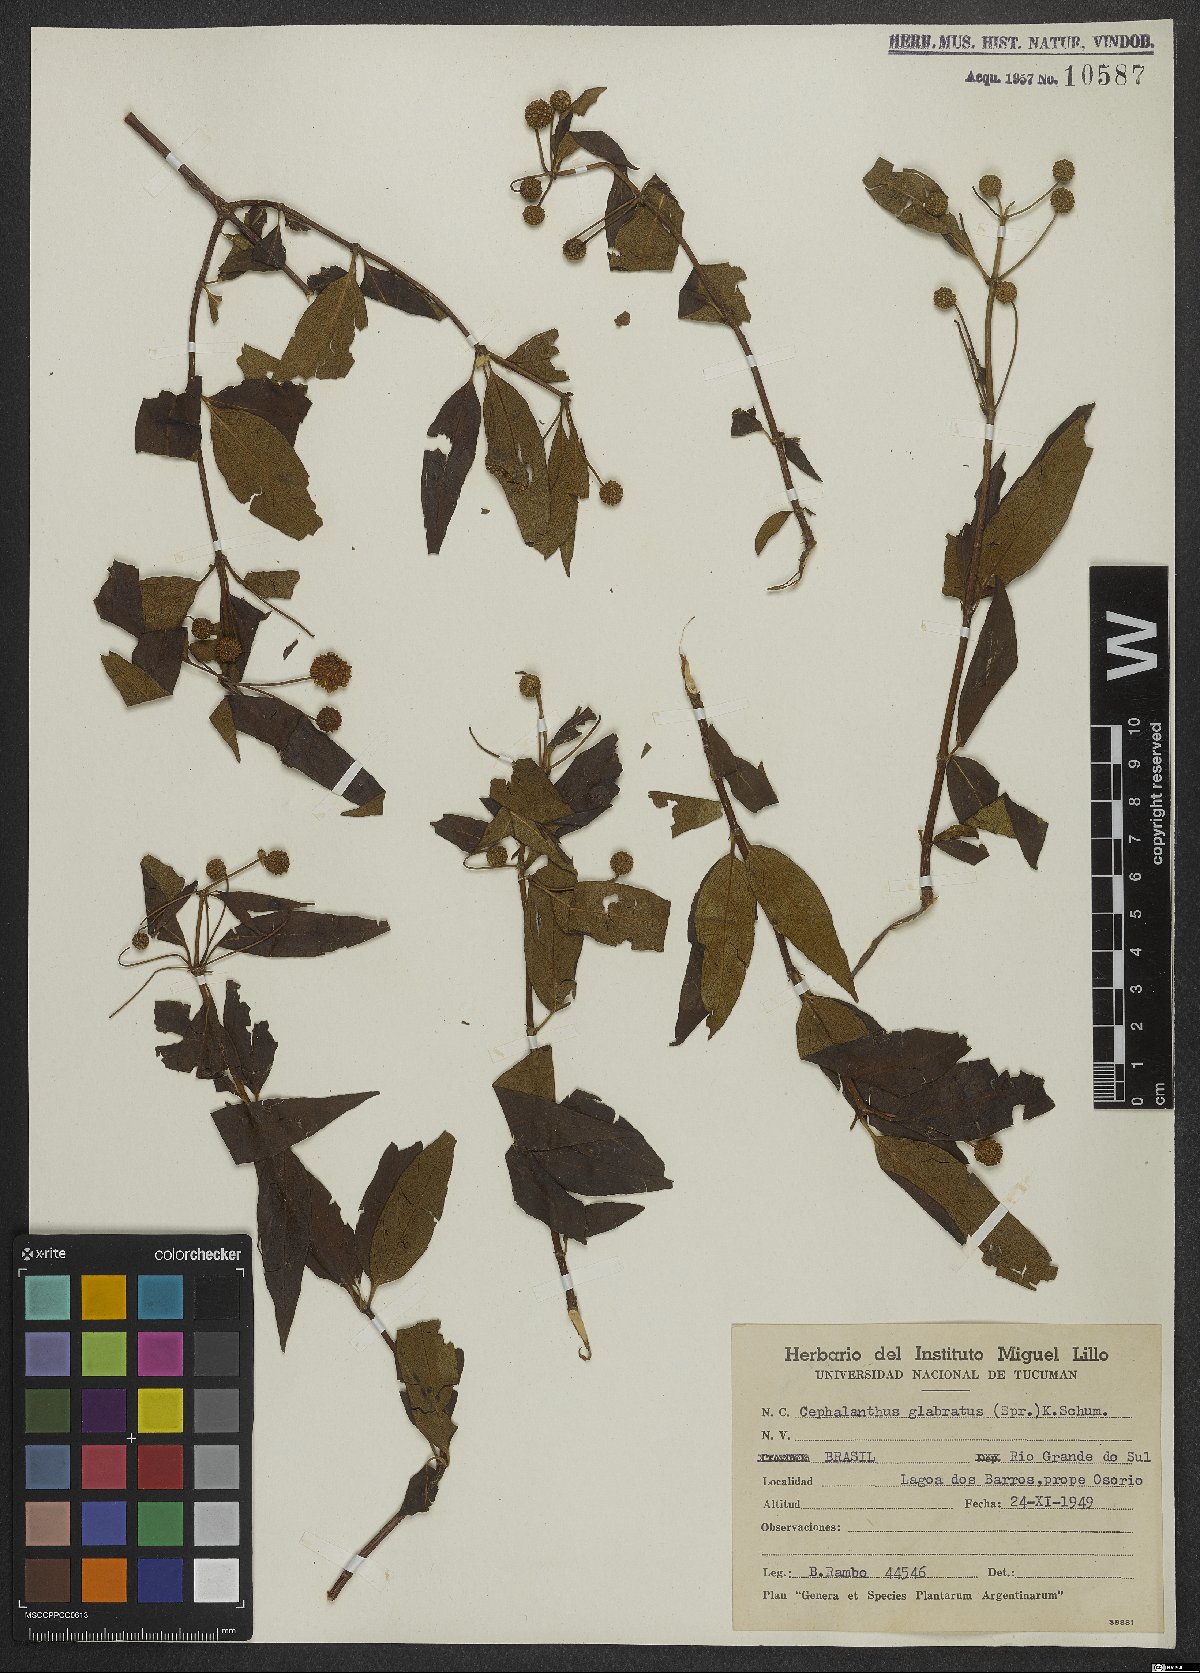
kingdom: Plantae
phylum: Tracheophyta
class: Magnoliopsida
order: Gentianales
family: Rubiaceae
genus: Cephalanthus
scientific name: Cephalanthus glabratus
